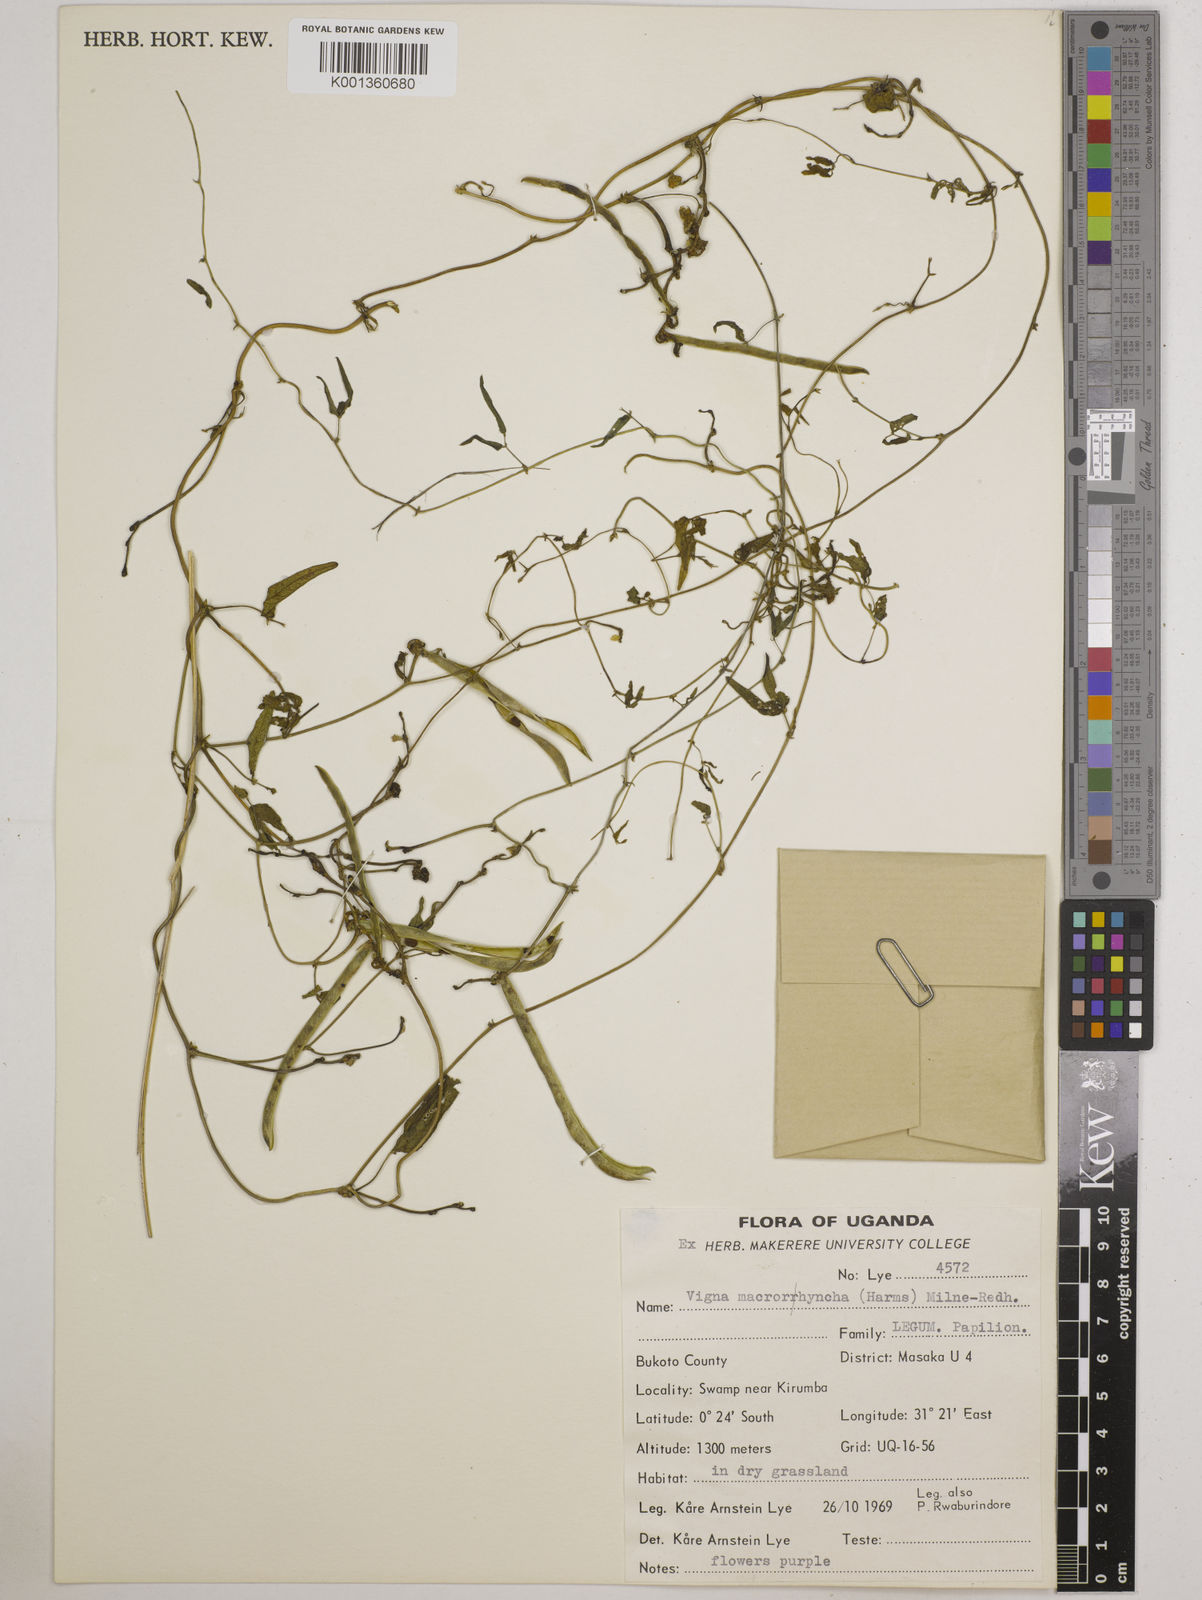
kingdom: Plantae
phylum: Tracheophyta
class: Magnoliopsida
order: Fabales
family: Fabaceae
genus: Wajira
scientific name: Wajira grahamiana
